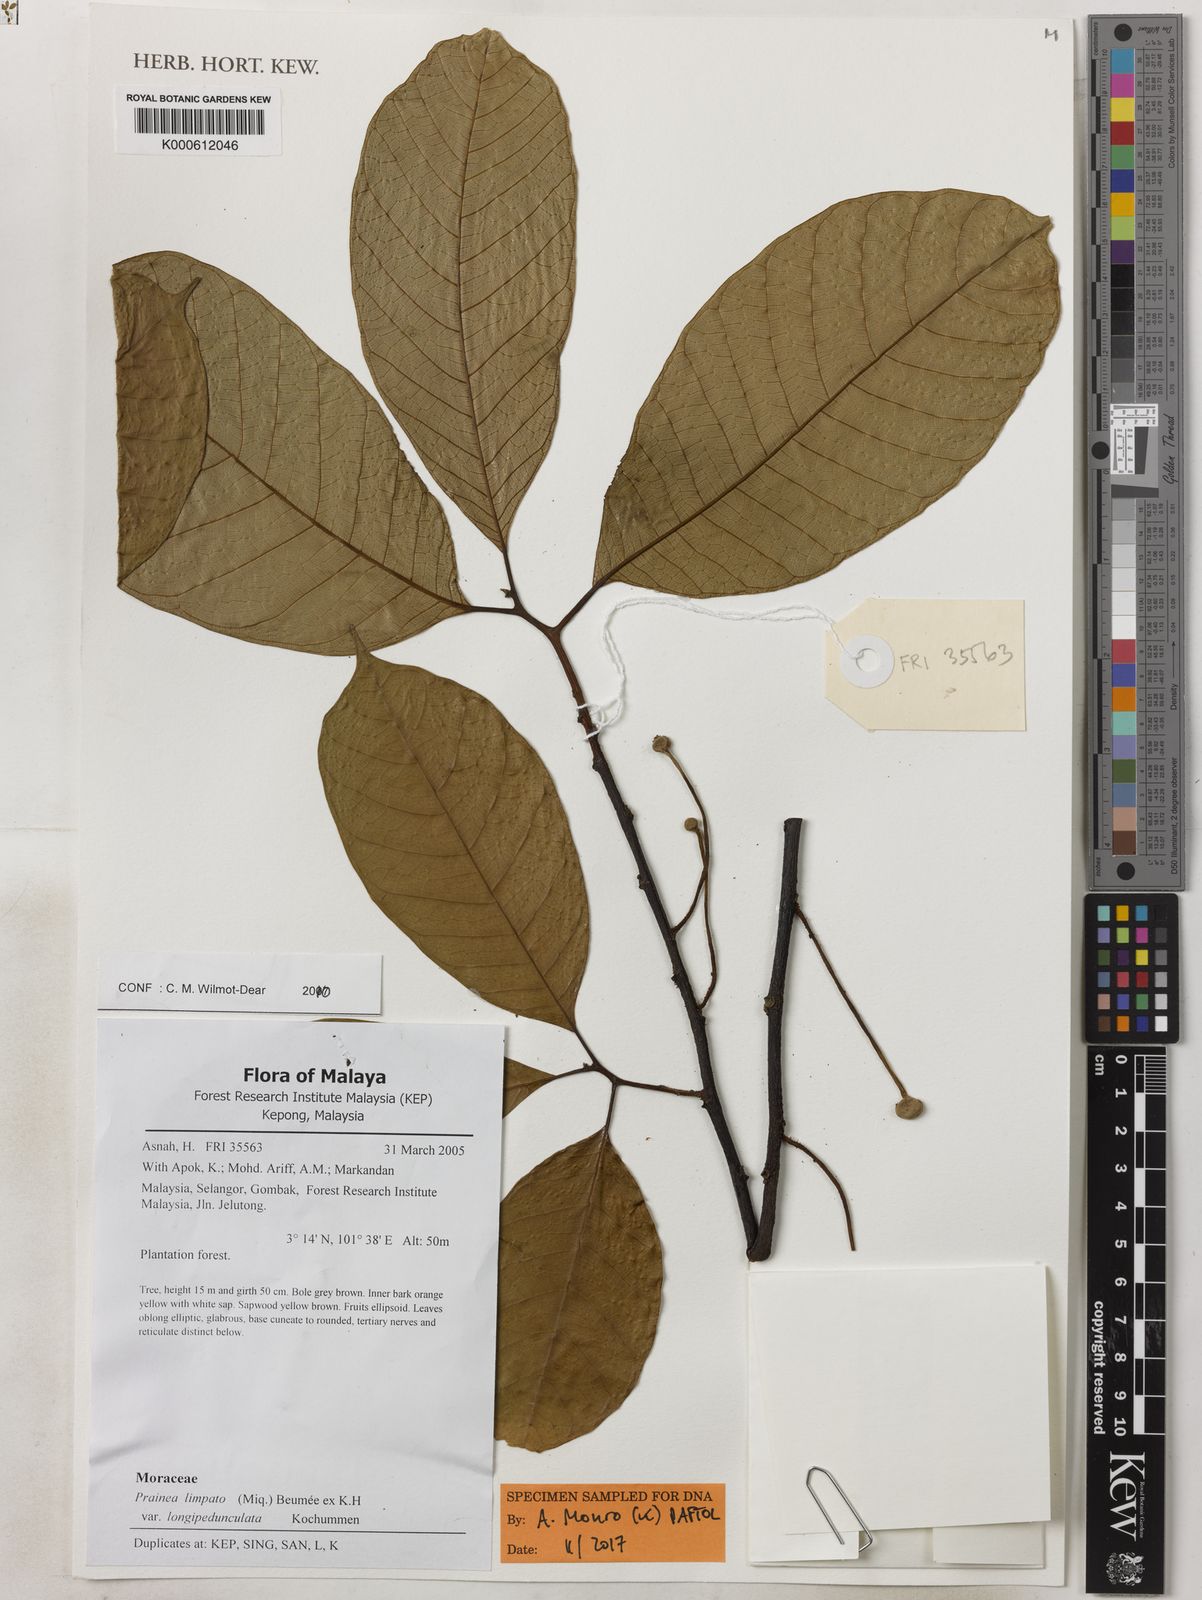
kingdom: Plantae
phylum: Tracheophyta
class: Magnoliopsida
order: Rosales
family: Moraceae
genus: Prainea
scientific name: Prainea limpato
